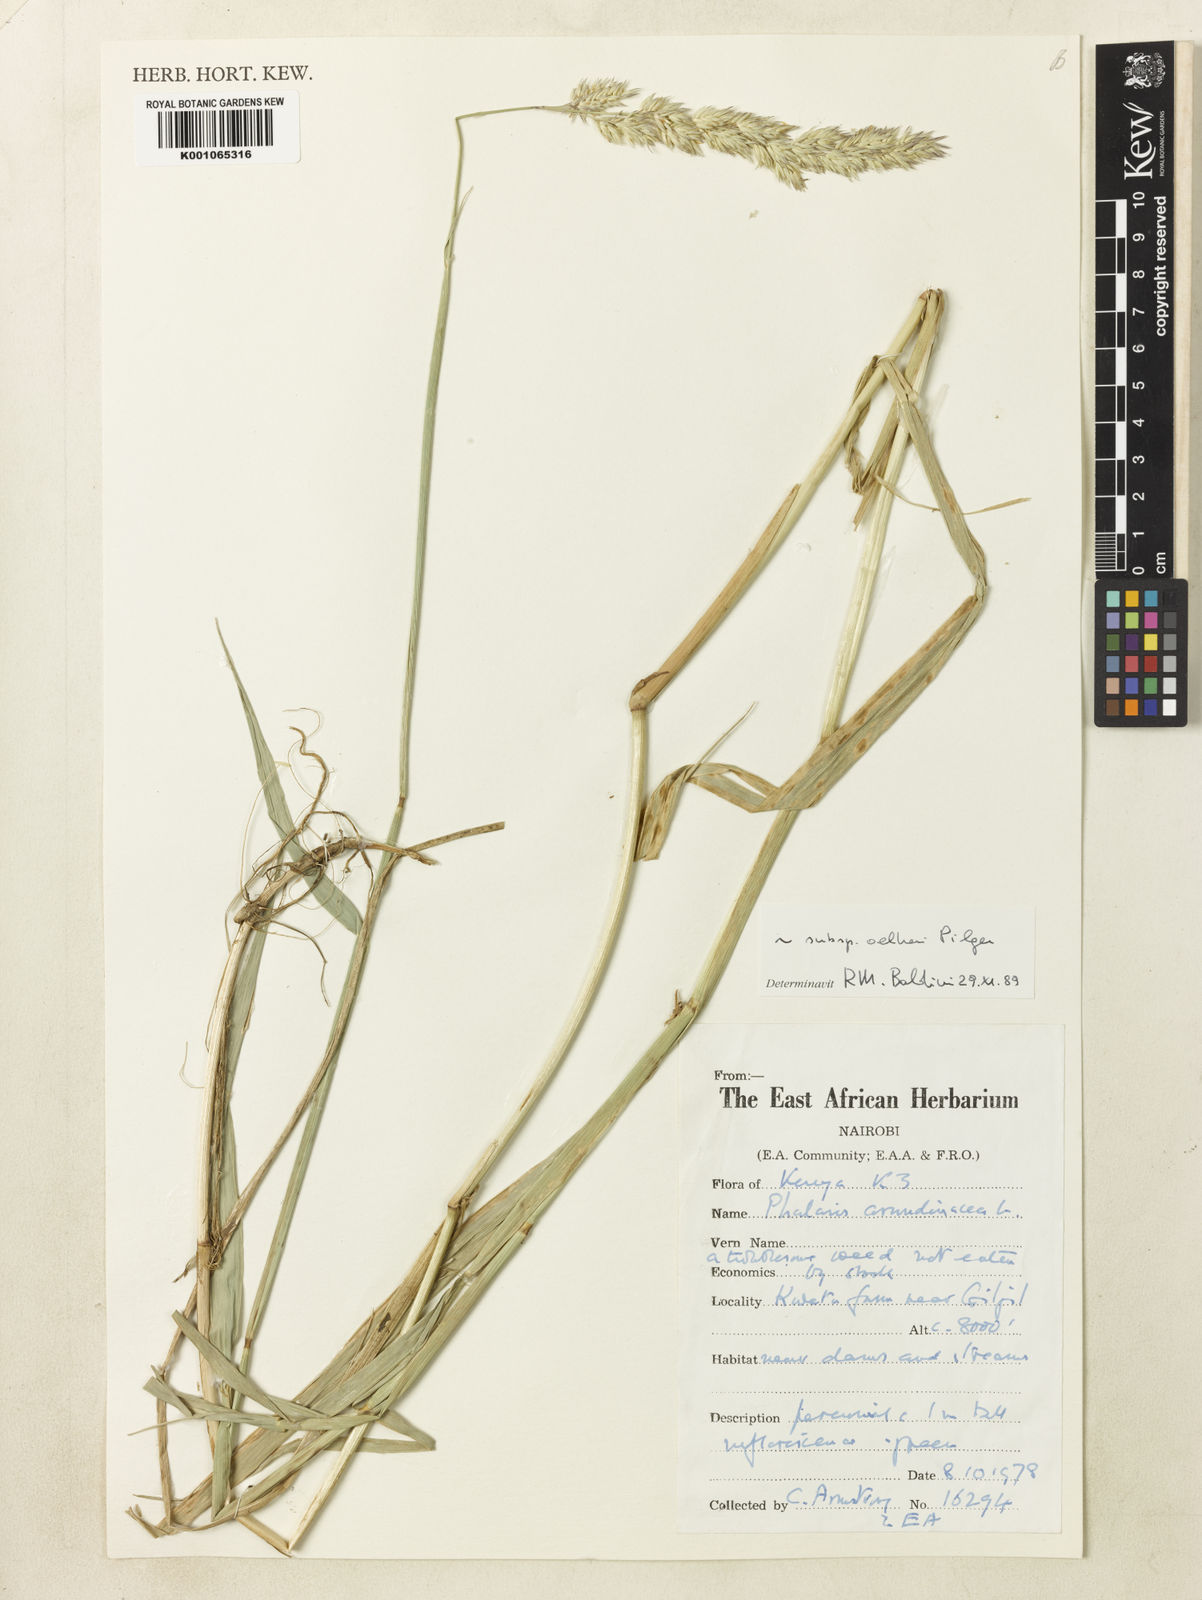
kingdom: Plantae
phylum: Tracheophyta
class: Liliopsida
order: Poales
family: Poaceae
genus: Phalaris
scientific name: Phalaris arundinacea
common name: Reed canary-grass
